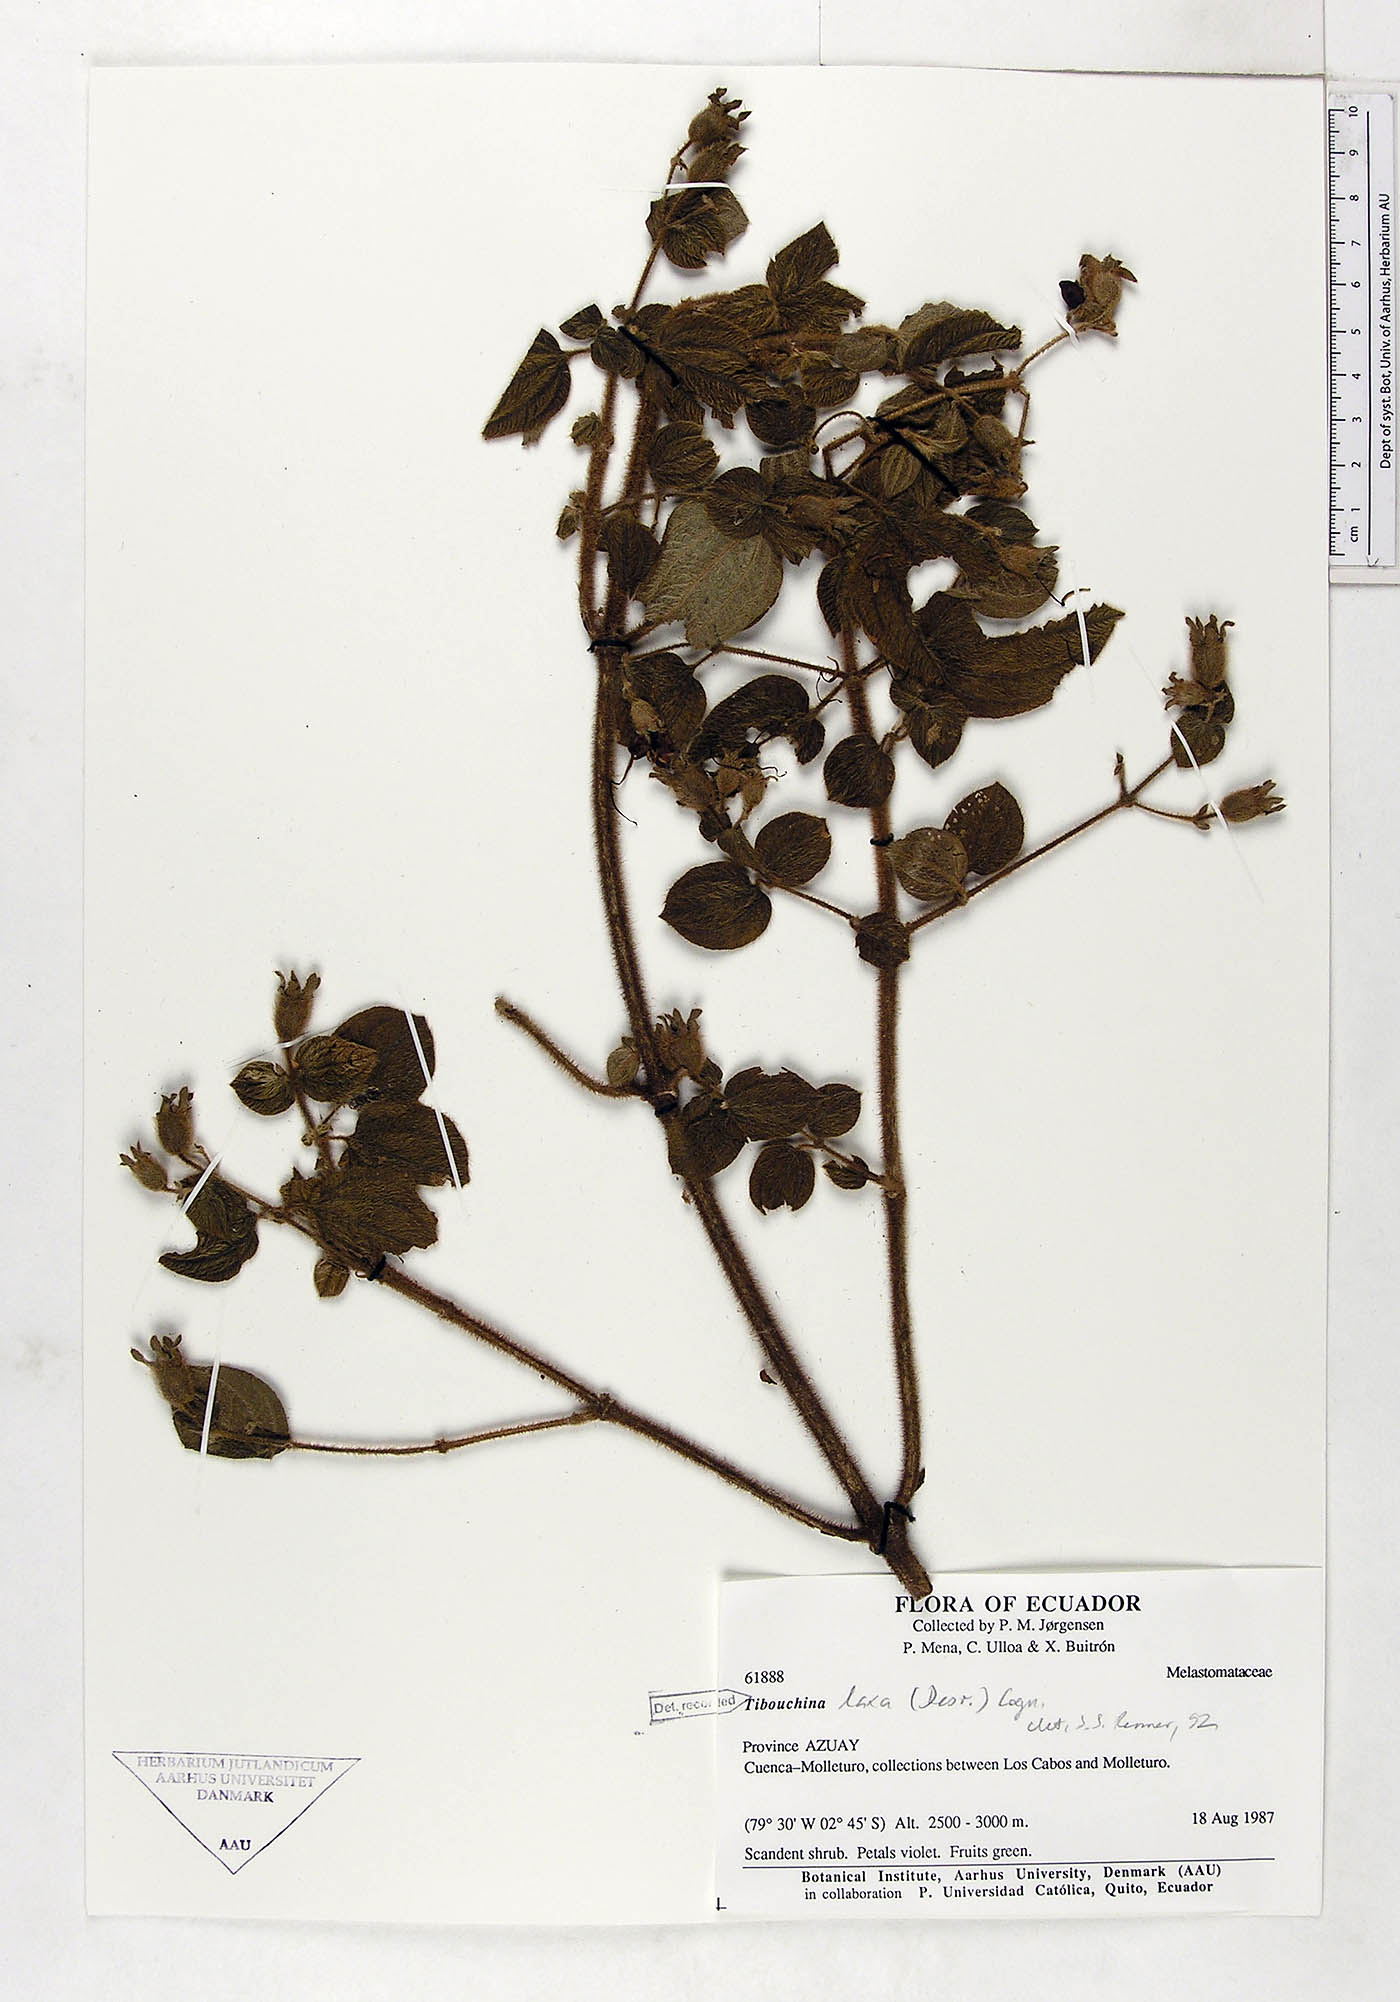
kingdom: Plantae
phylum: Tracheophyta
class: Magnoliopsida
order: Myrtales
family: Melastomataceae
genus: Chaetogastra
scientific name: Chaetogastra laxa
